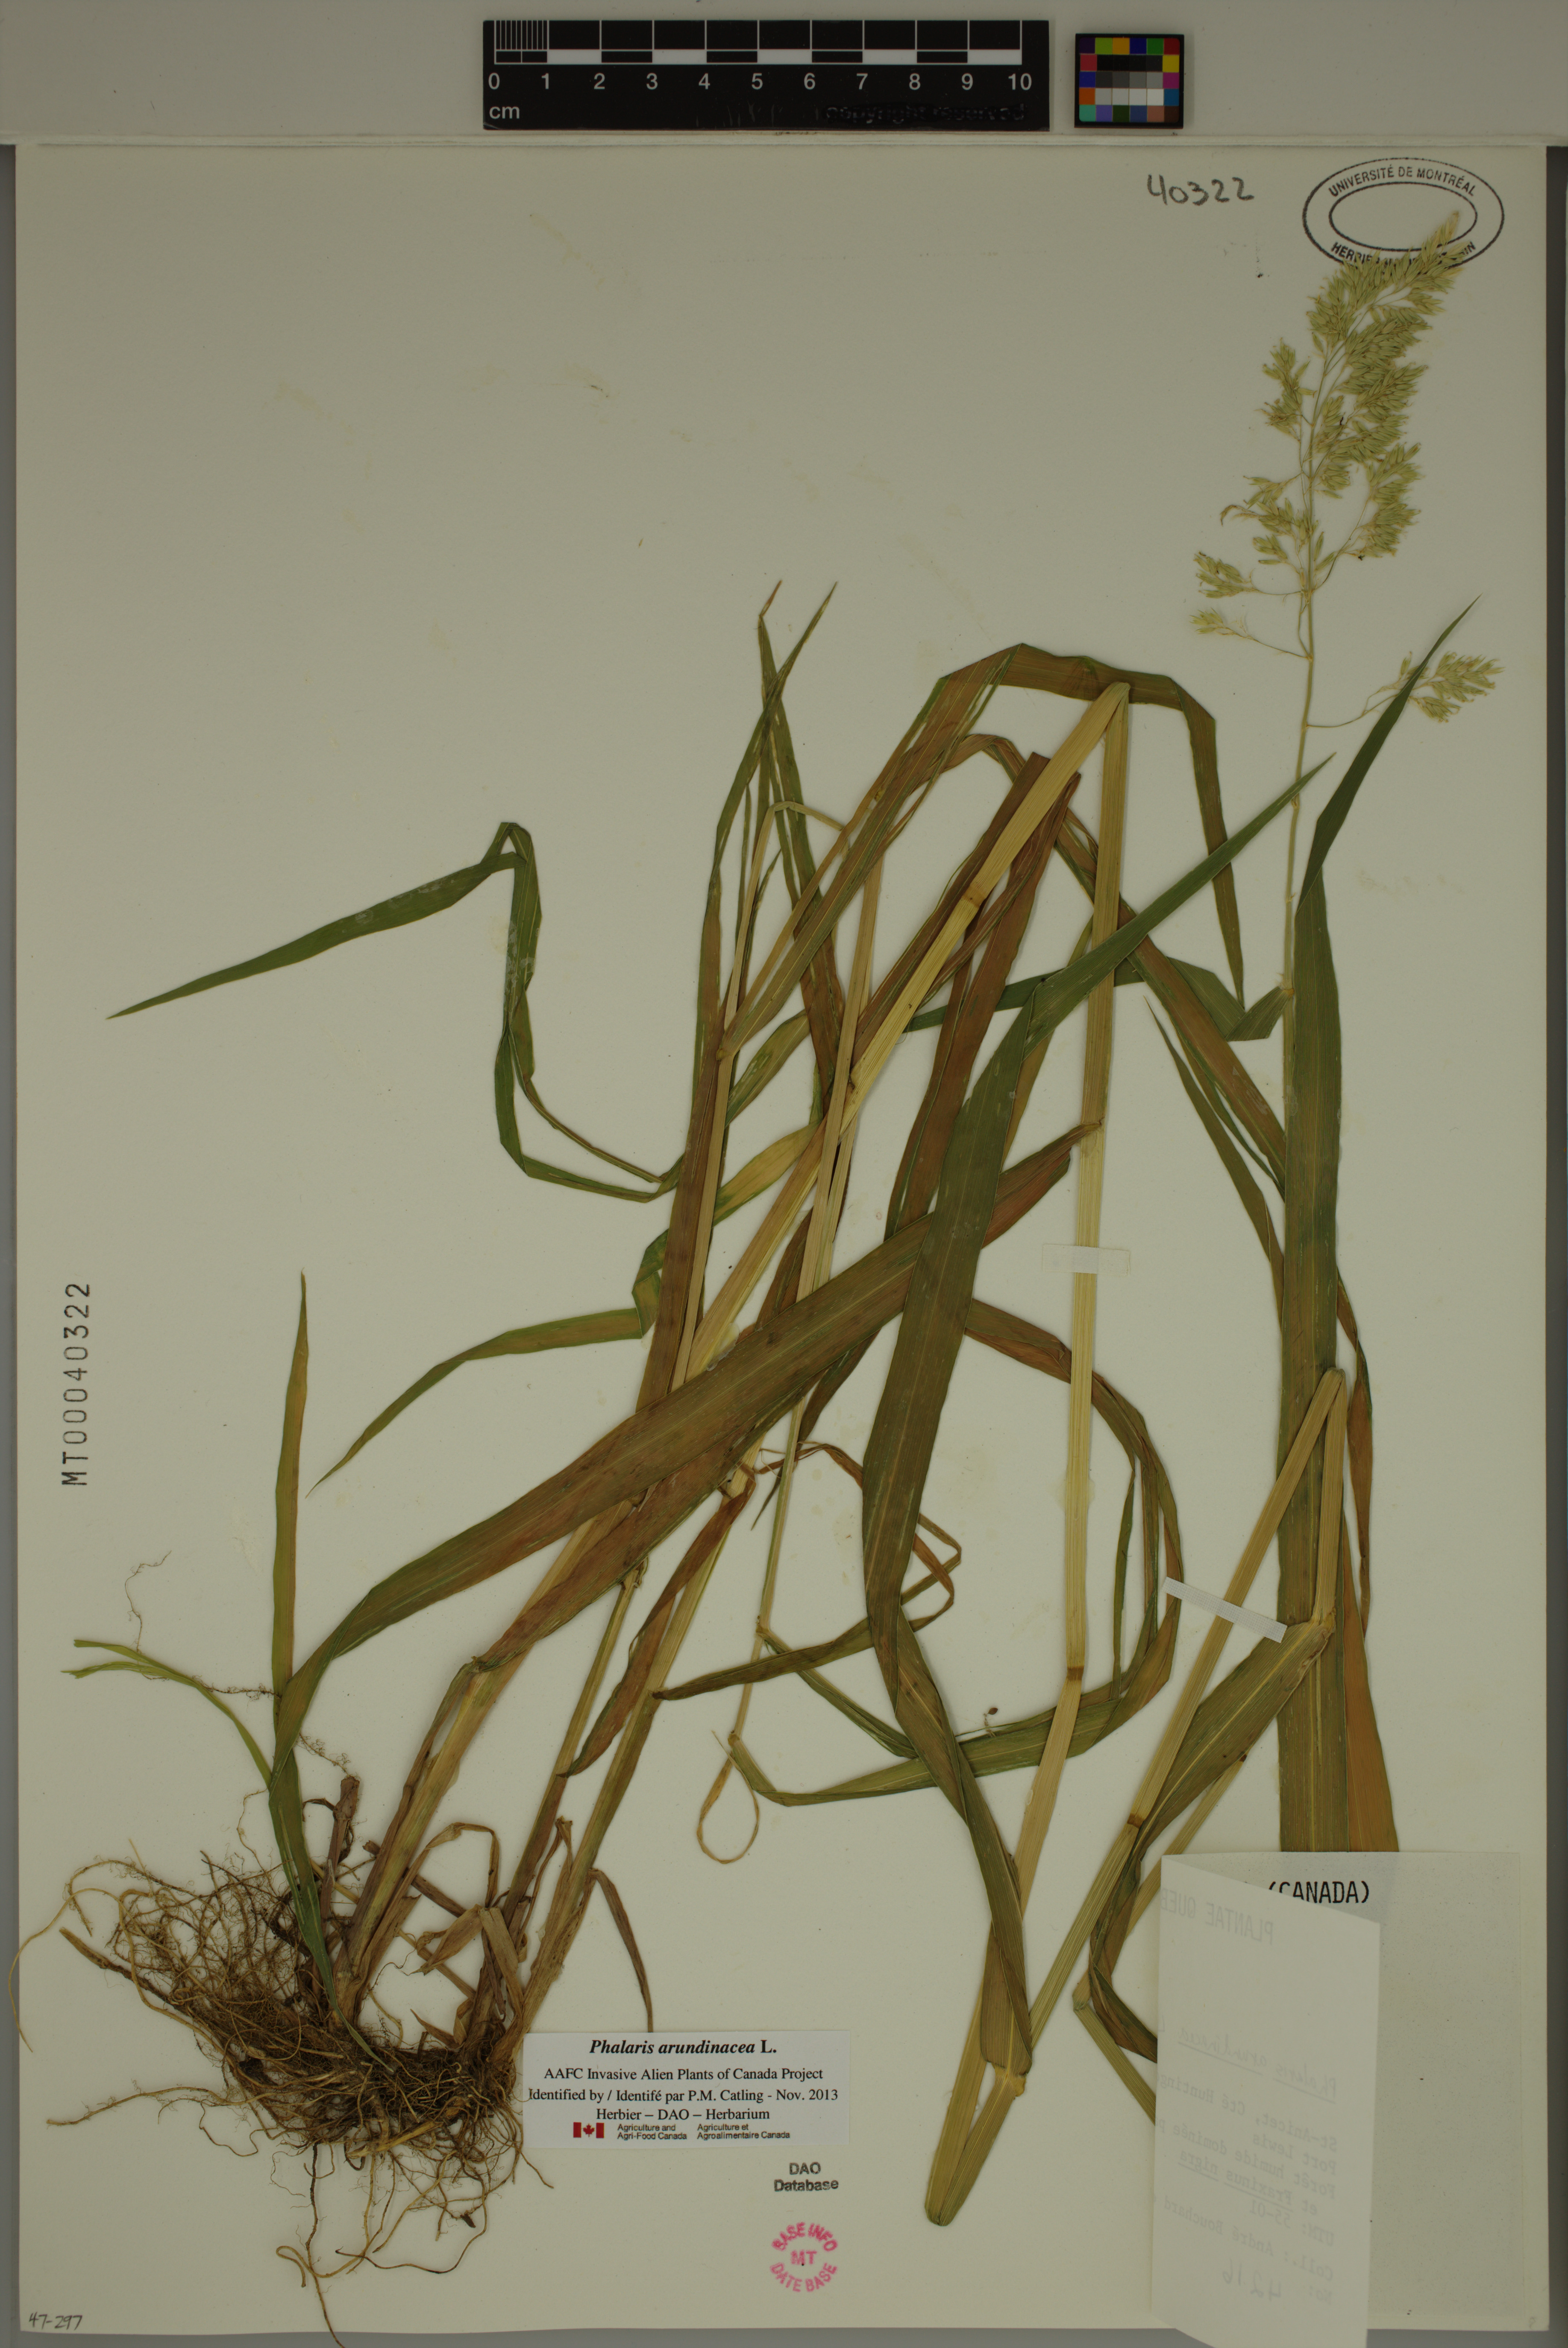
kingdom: Plantae
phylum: Tracheophyta
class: Liliopsida
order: Poales
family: Poaceae
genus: Phalaris
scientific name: Phalaris arundinacea
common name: Reed canary-grass
